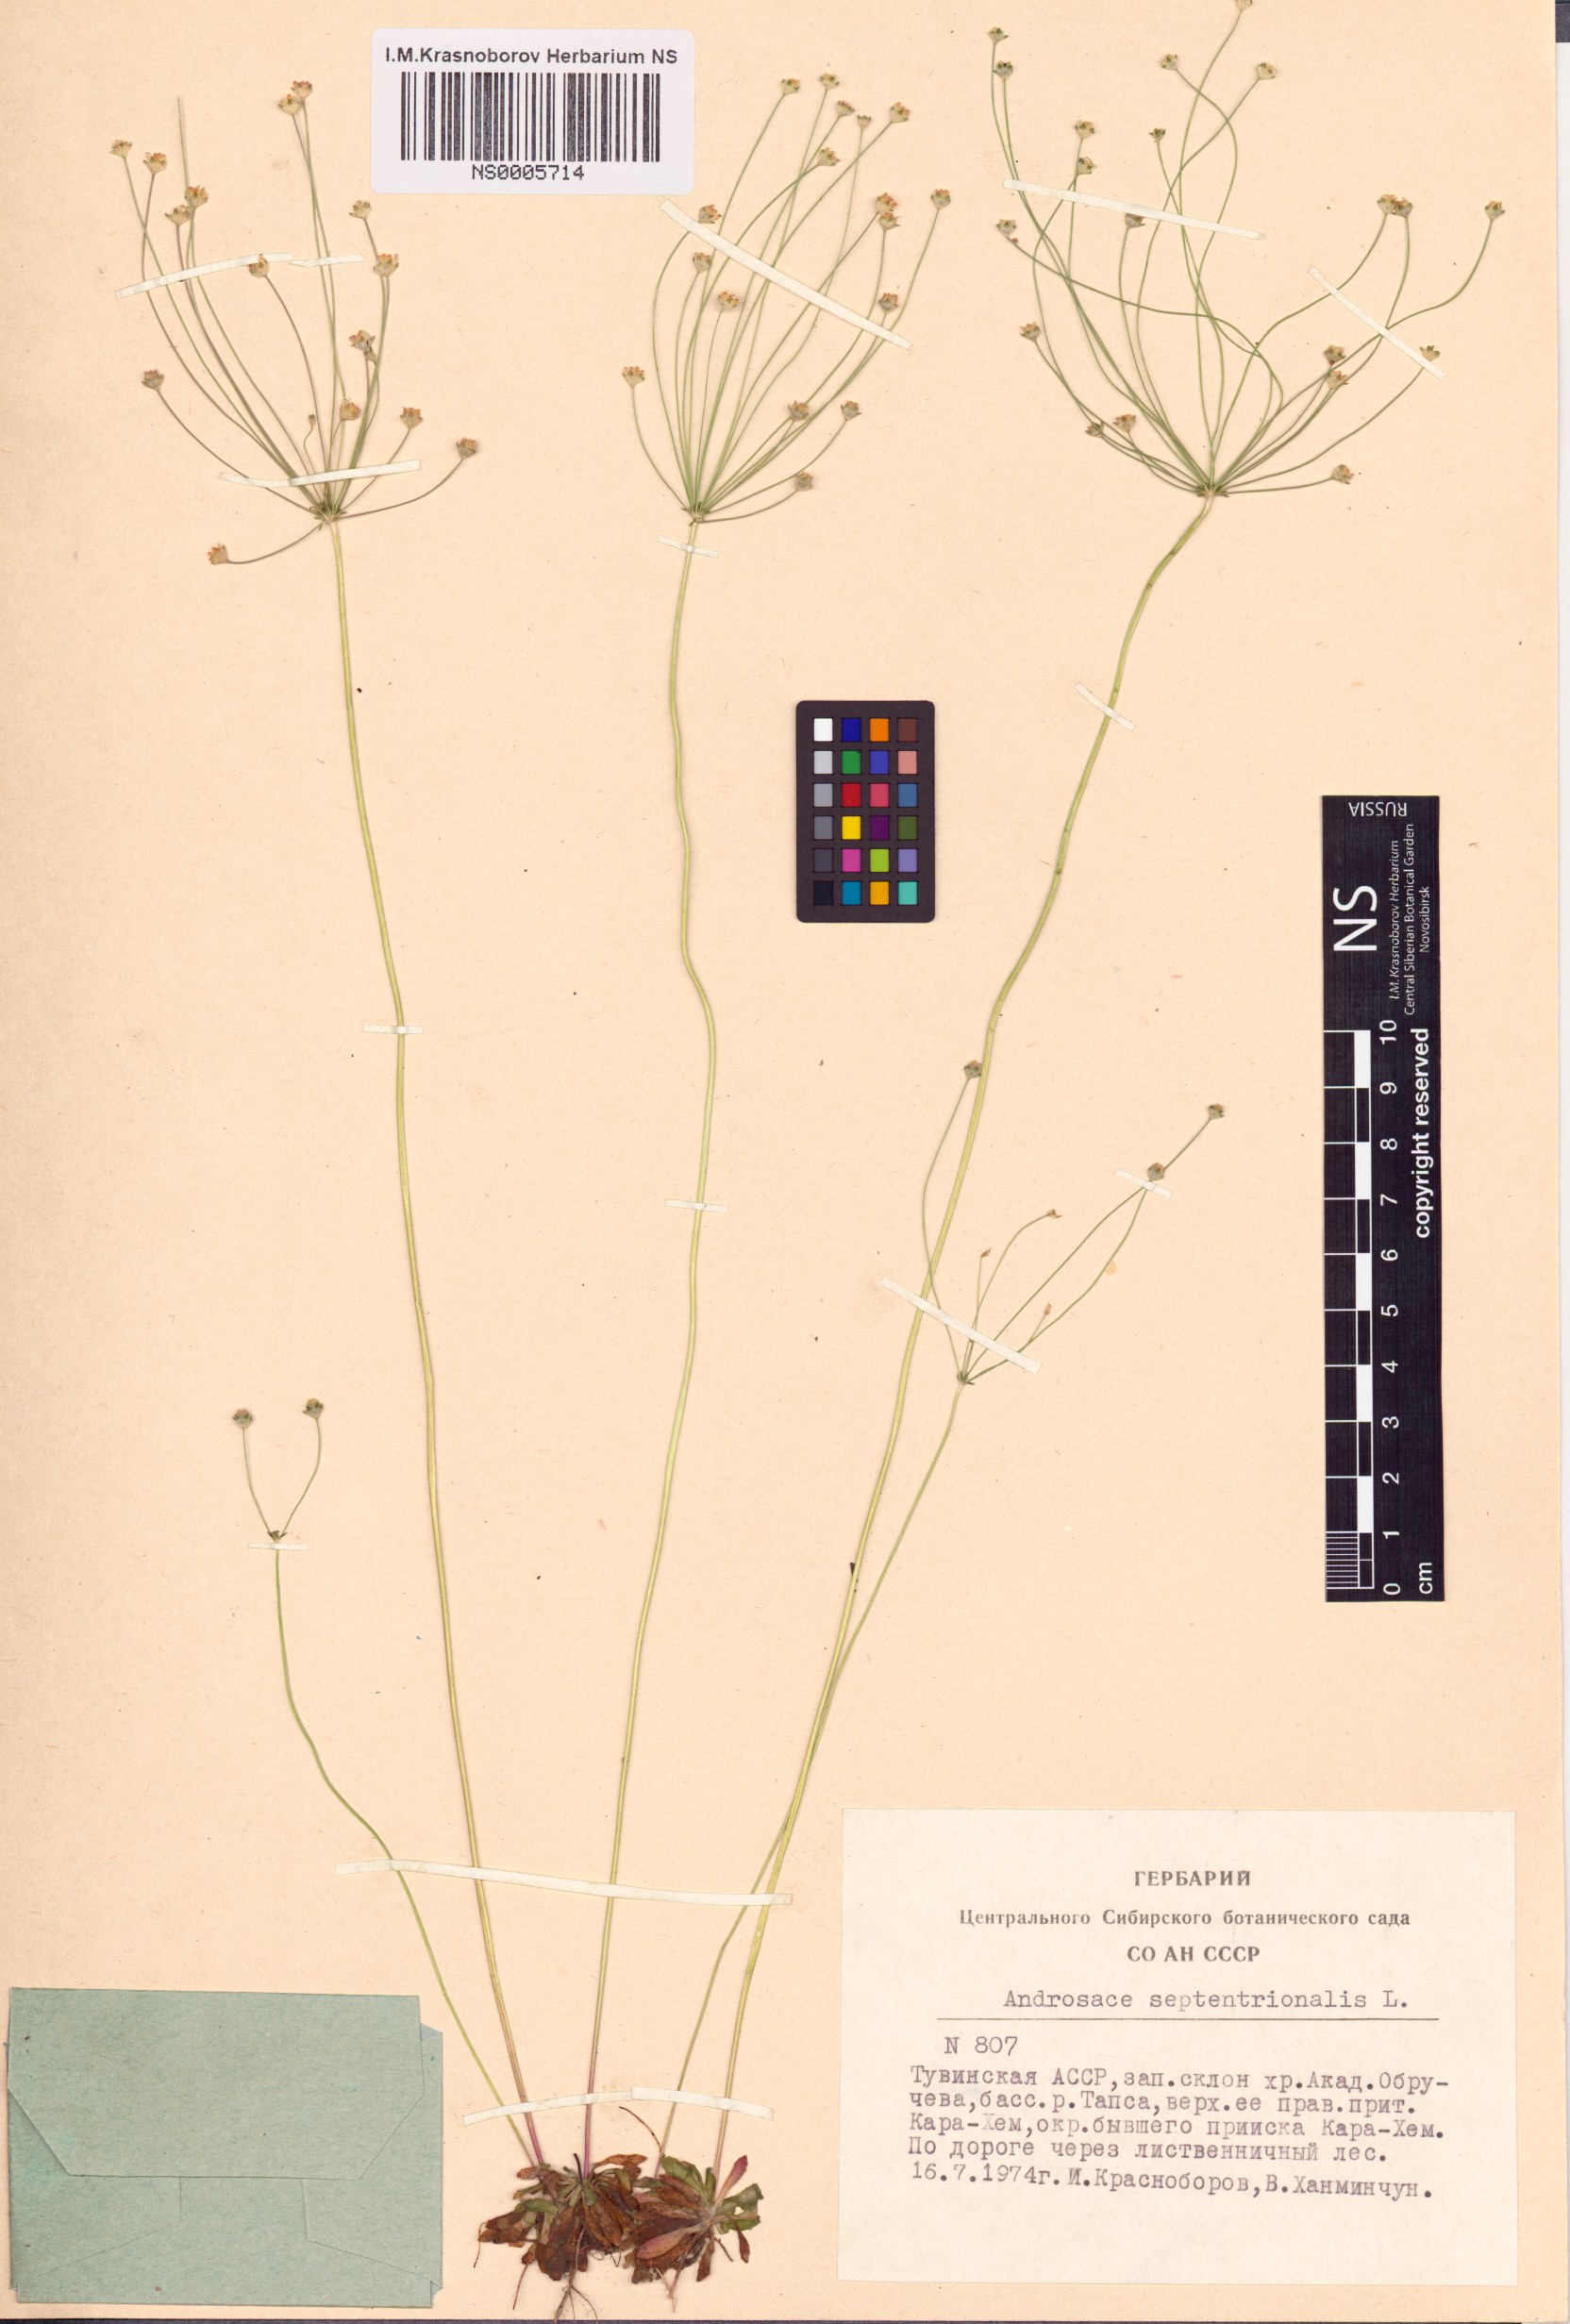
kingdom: Plantae
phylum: Tracheophyta
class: Magnoliopsida
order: Ericales
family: Primulaceae
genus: Androsace
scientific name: Androsace septentrionalis
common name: Hairy northern fairy-candelabra
